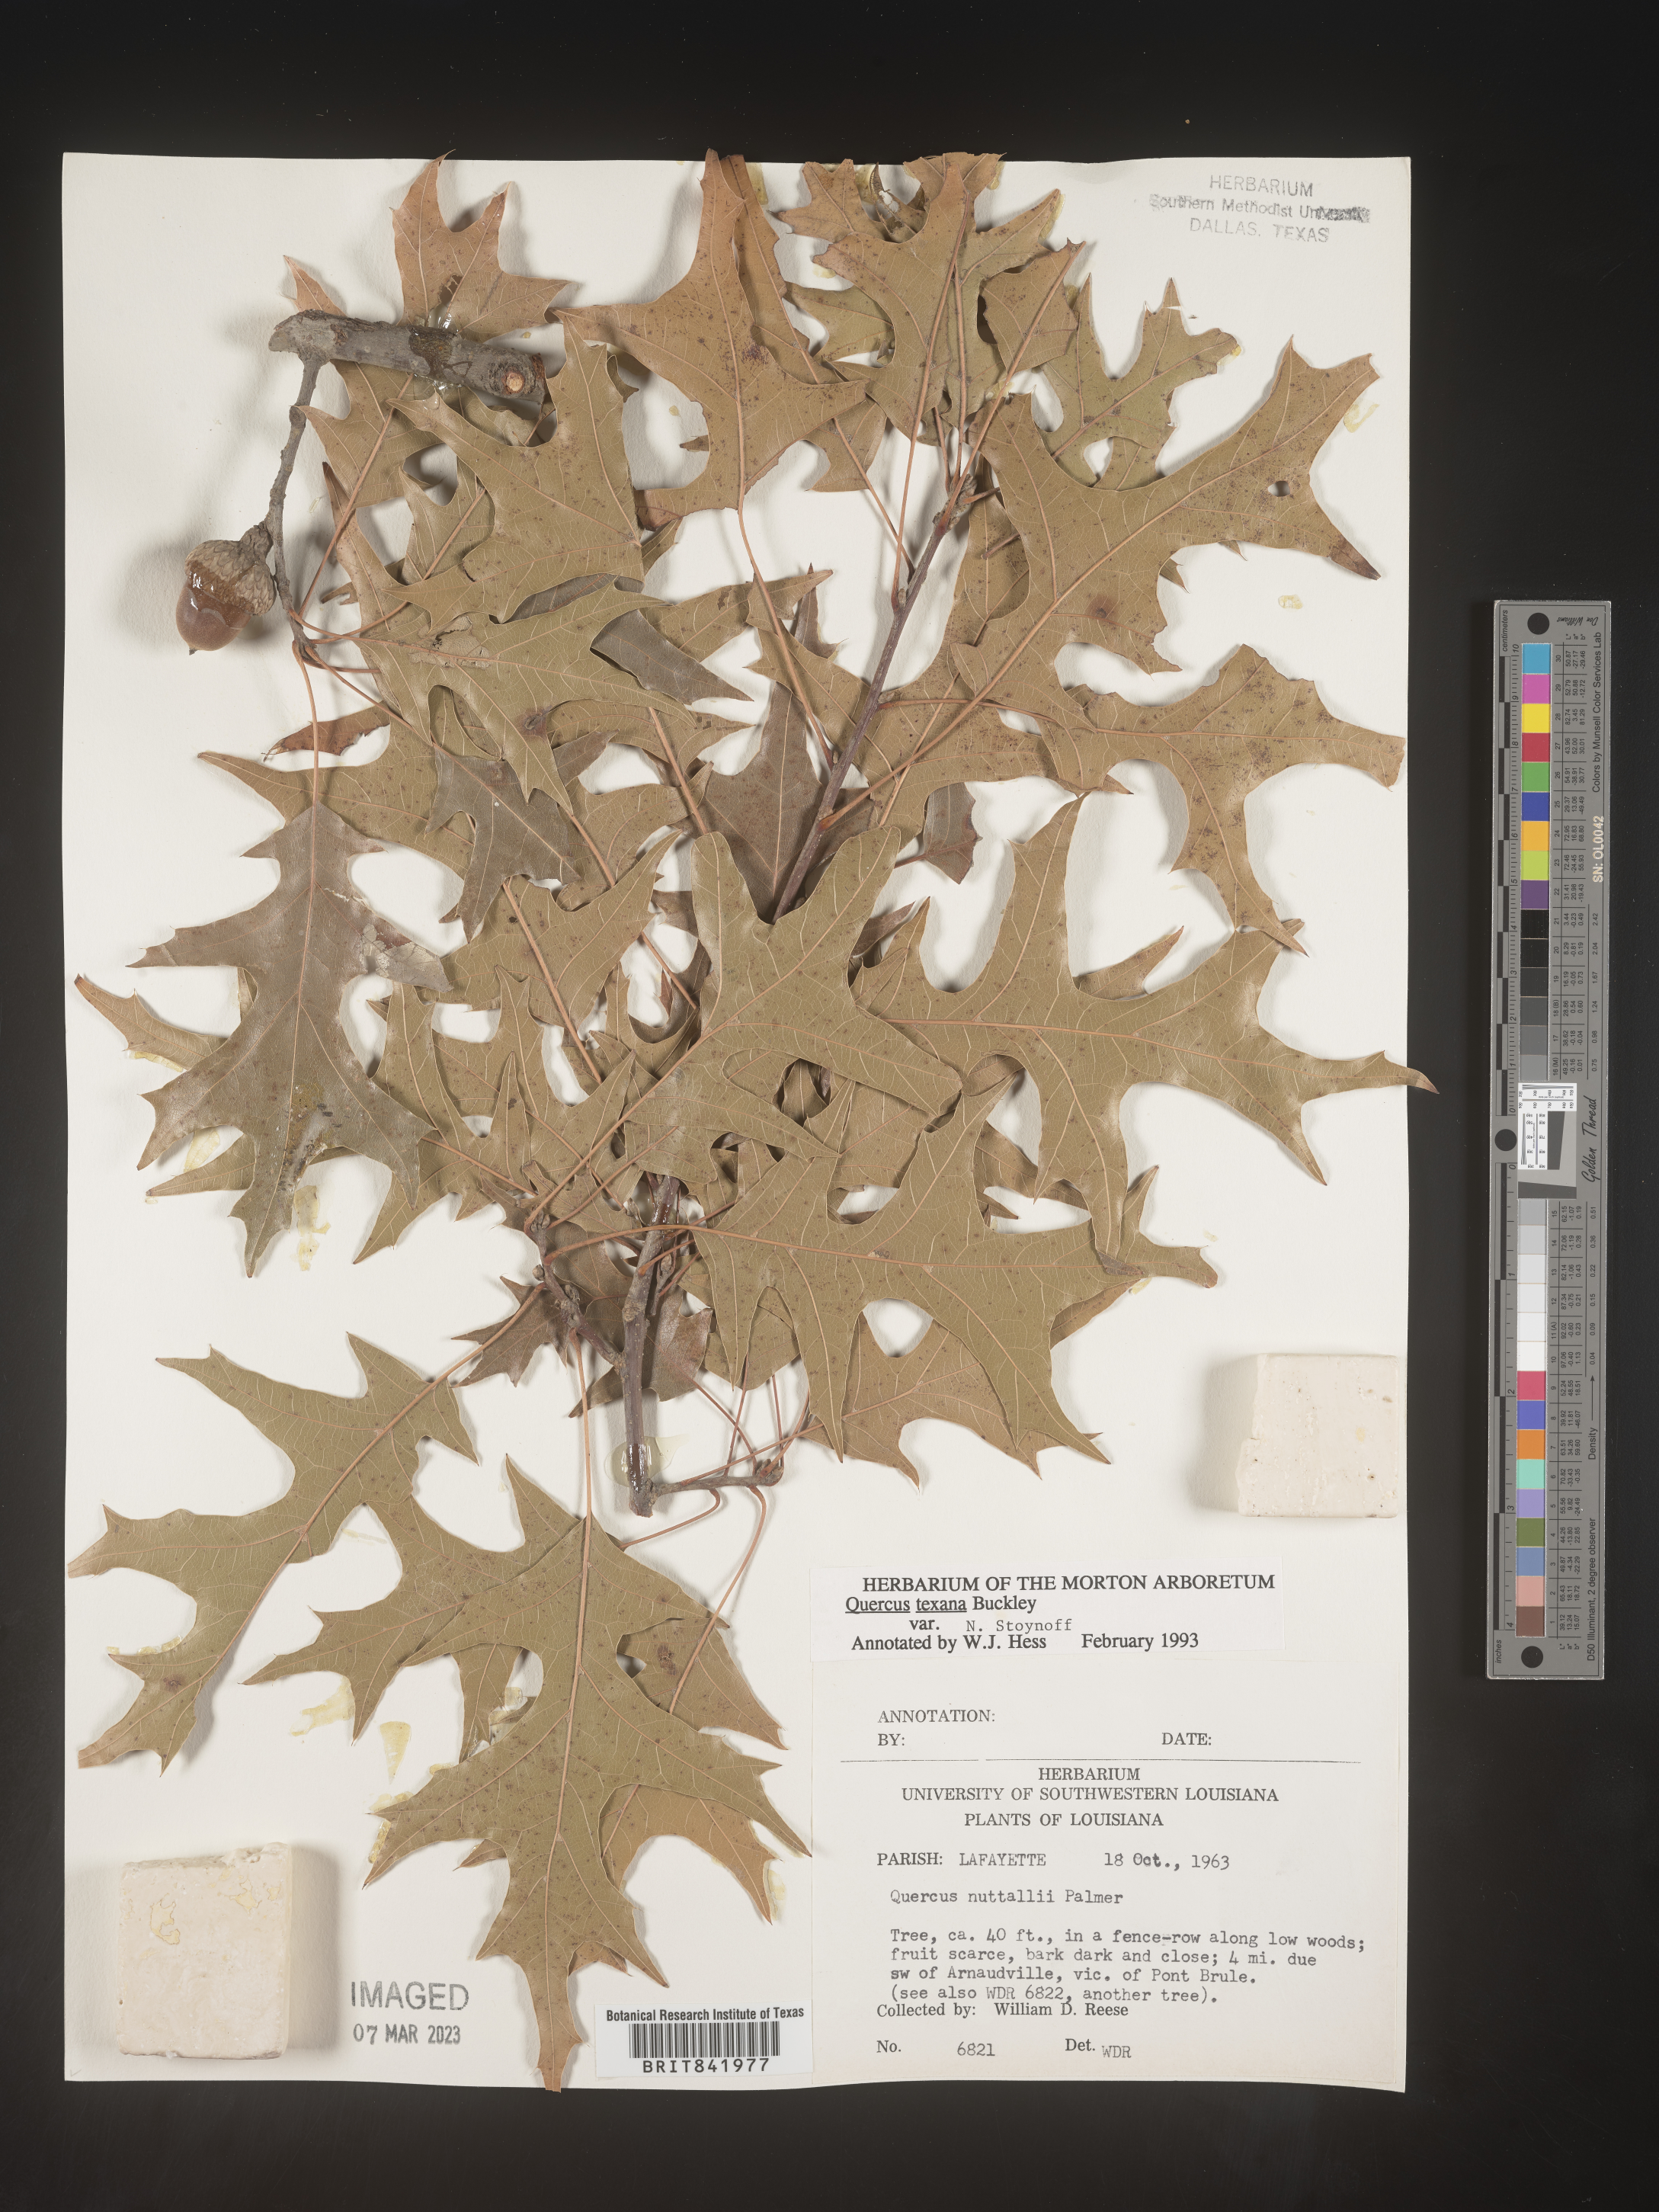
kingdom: Plantae
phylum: Tracheophyta
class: Magnoliopsida
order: Fagales
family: Fagaceae
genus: Quercus
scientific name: Quercus texana
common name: Nuttall oak
